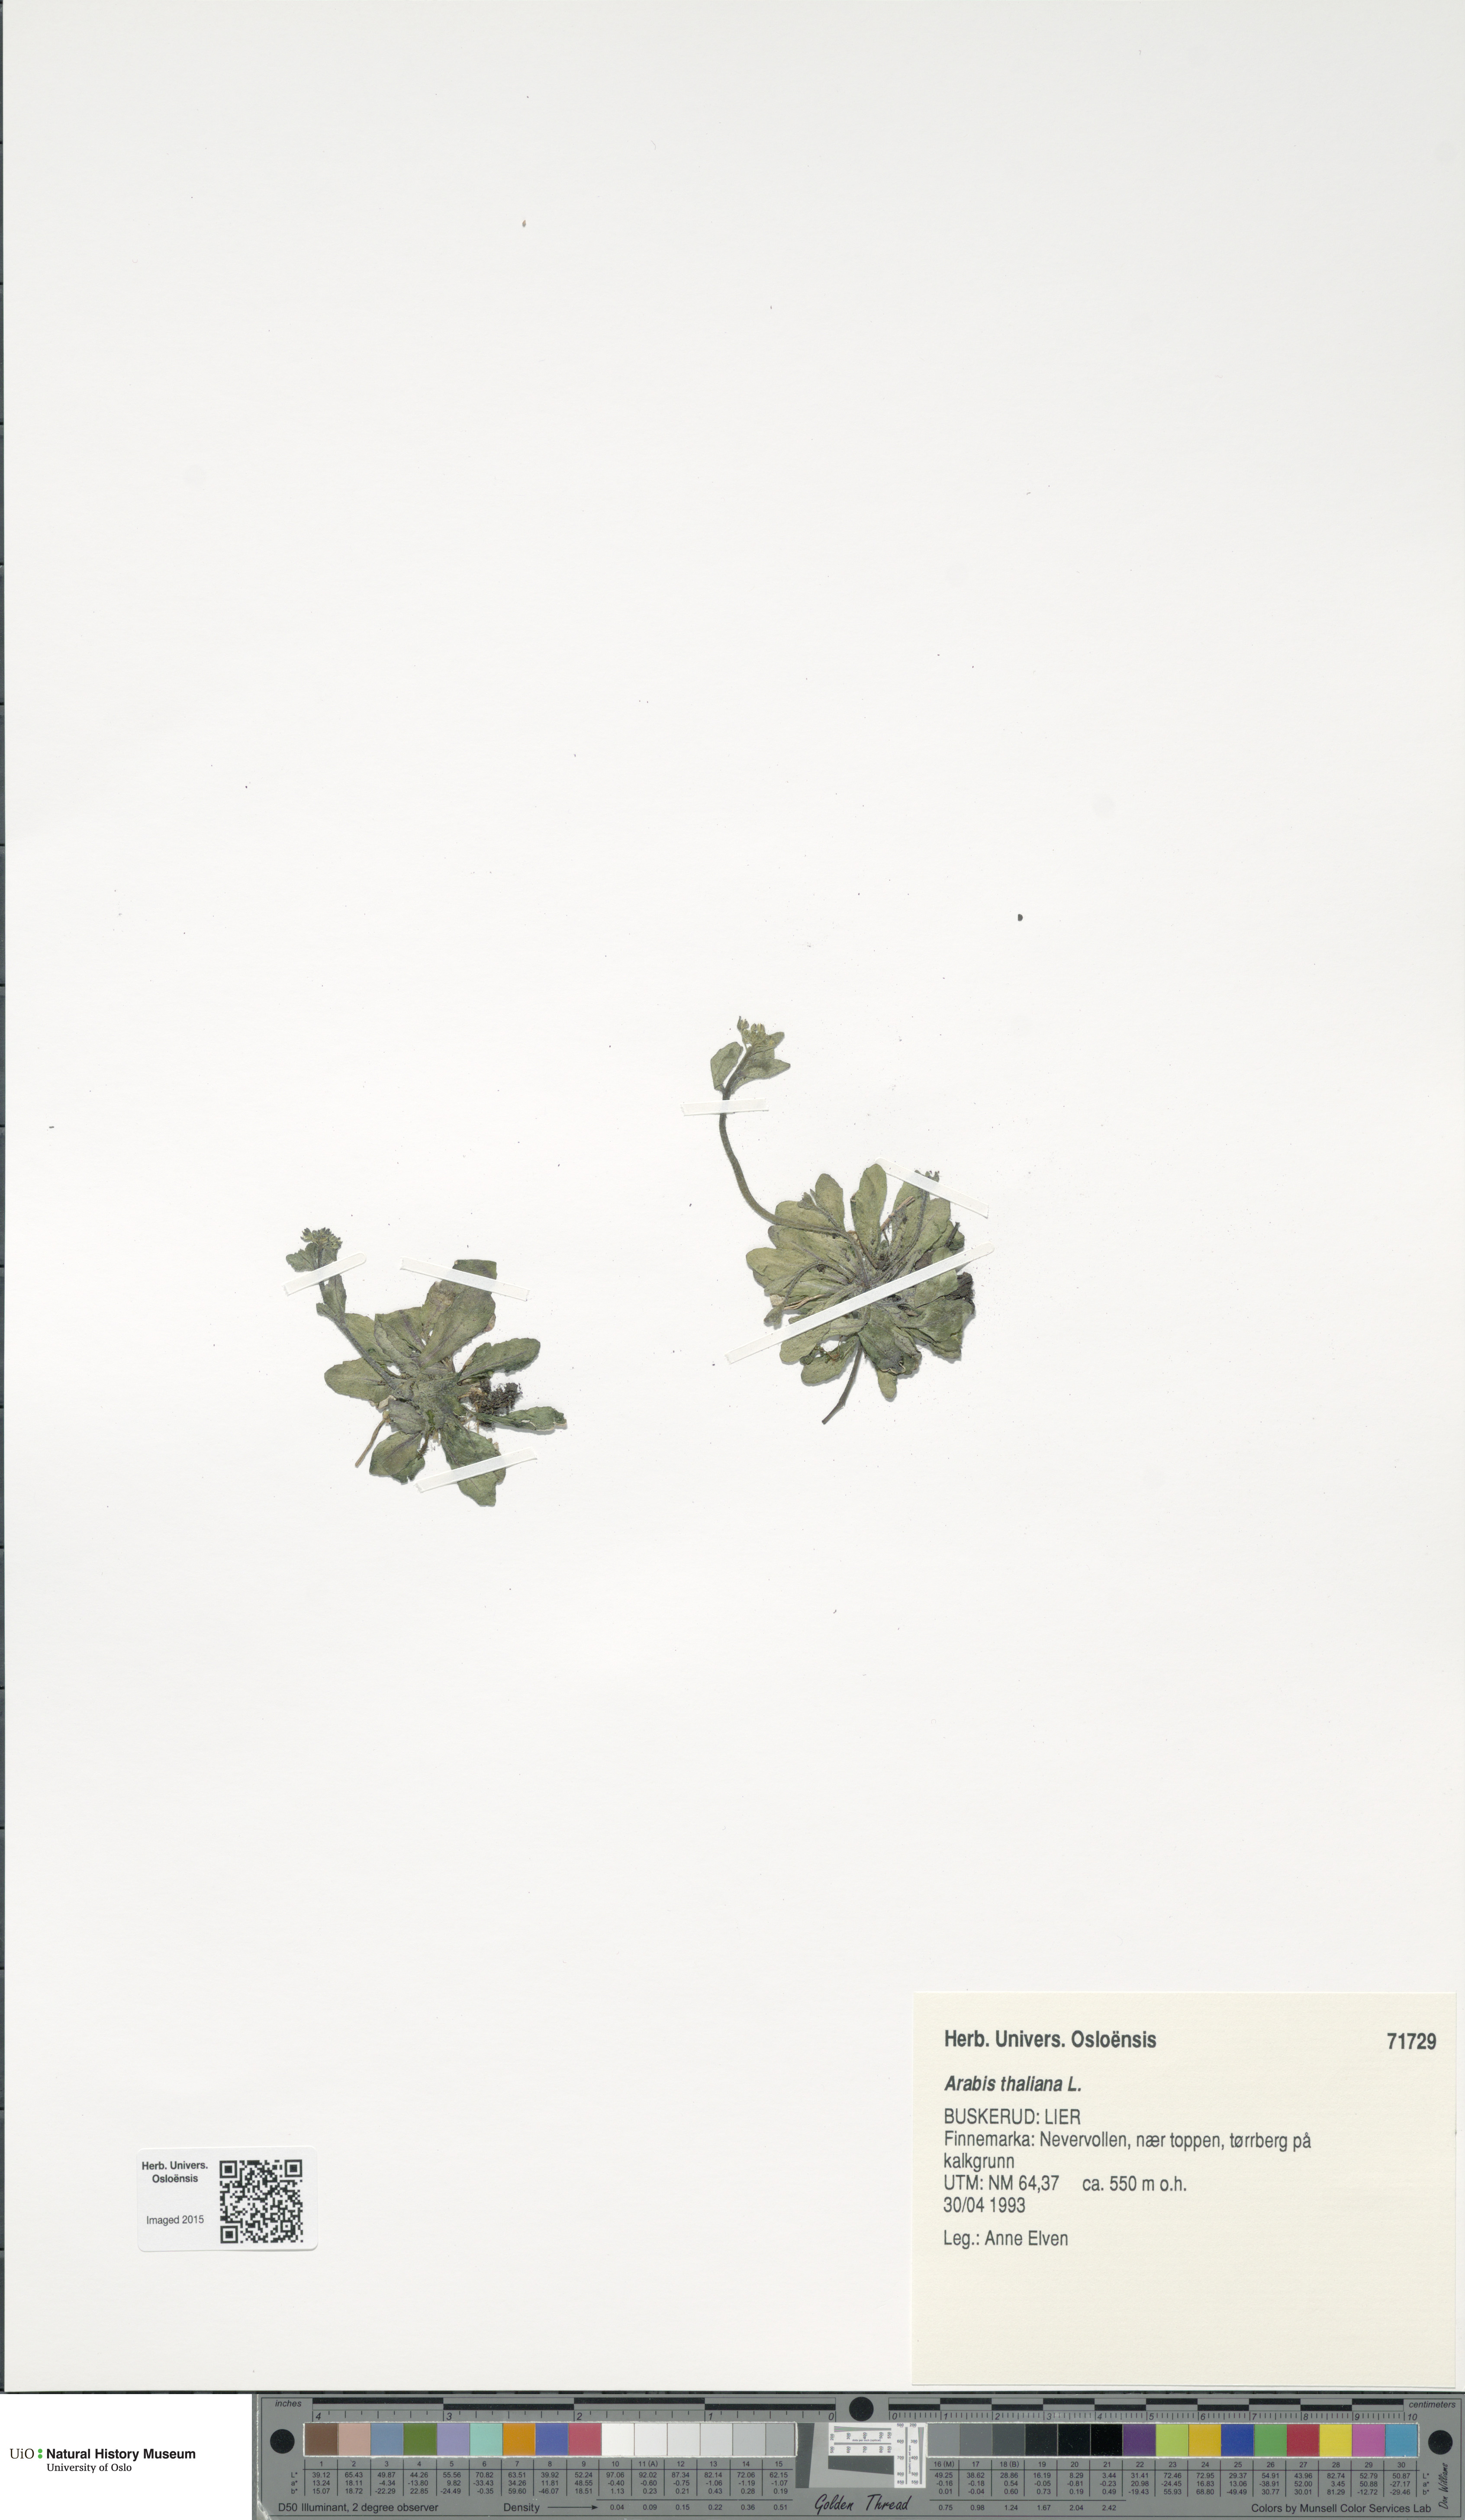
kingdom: Plantae
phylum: Tracheophyta
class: Magnoliopsida
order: Brassicales
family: Brassicaceae
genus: Arabidopsis
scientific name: Arabidopsis thaliana
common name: Thale cress
